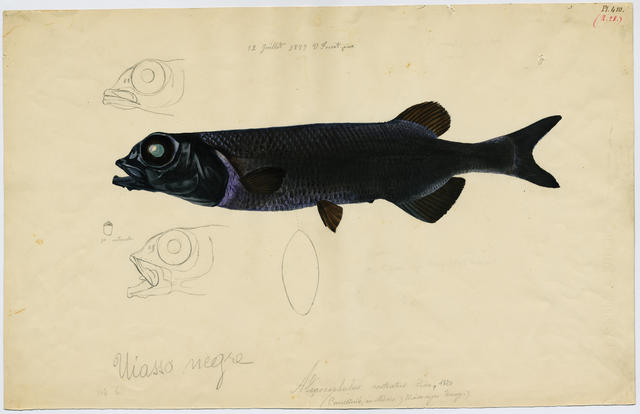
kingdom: Animalia
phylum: Chordata
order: Osmeriformes
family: Alepocephalidae
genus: Alepocephalus
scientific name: Alepocephalus rostratus
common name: Risso's smooth-head
